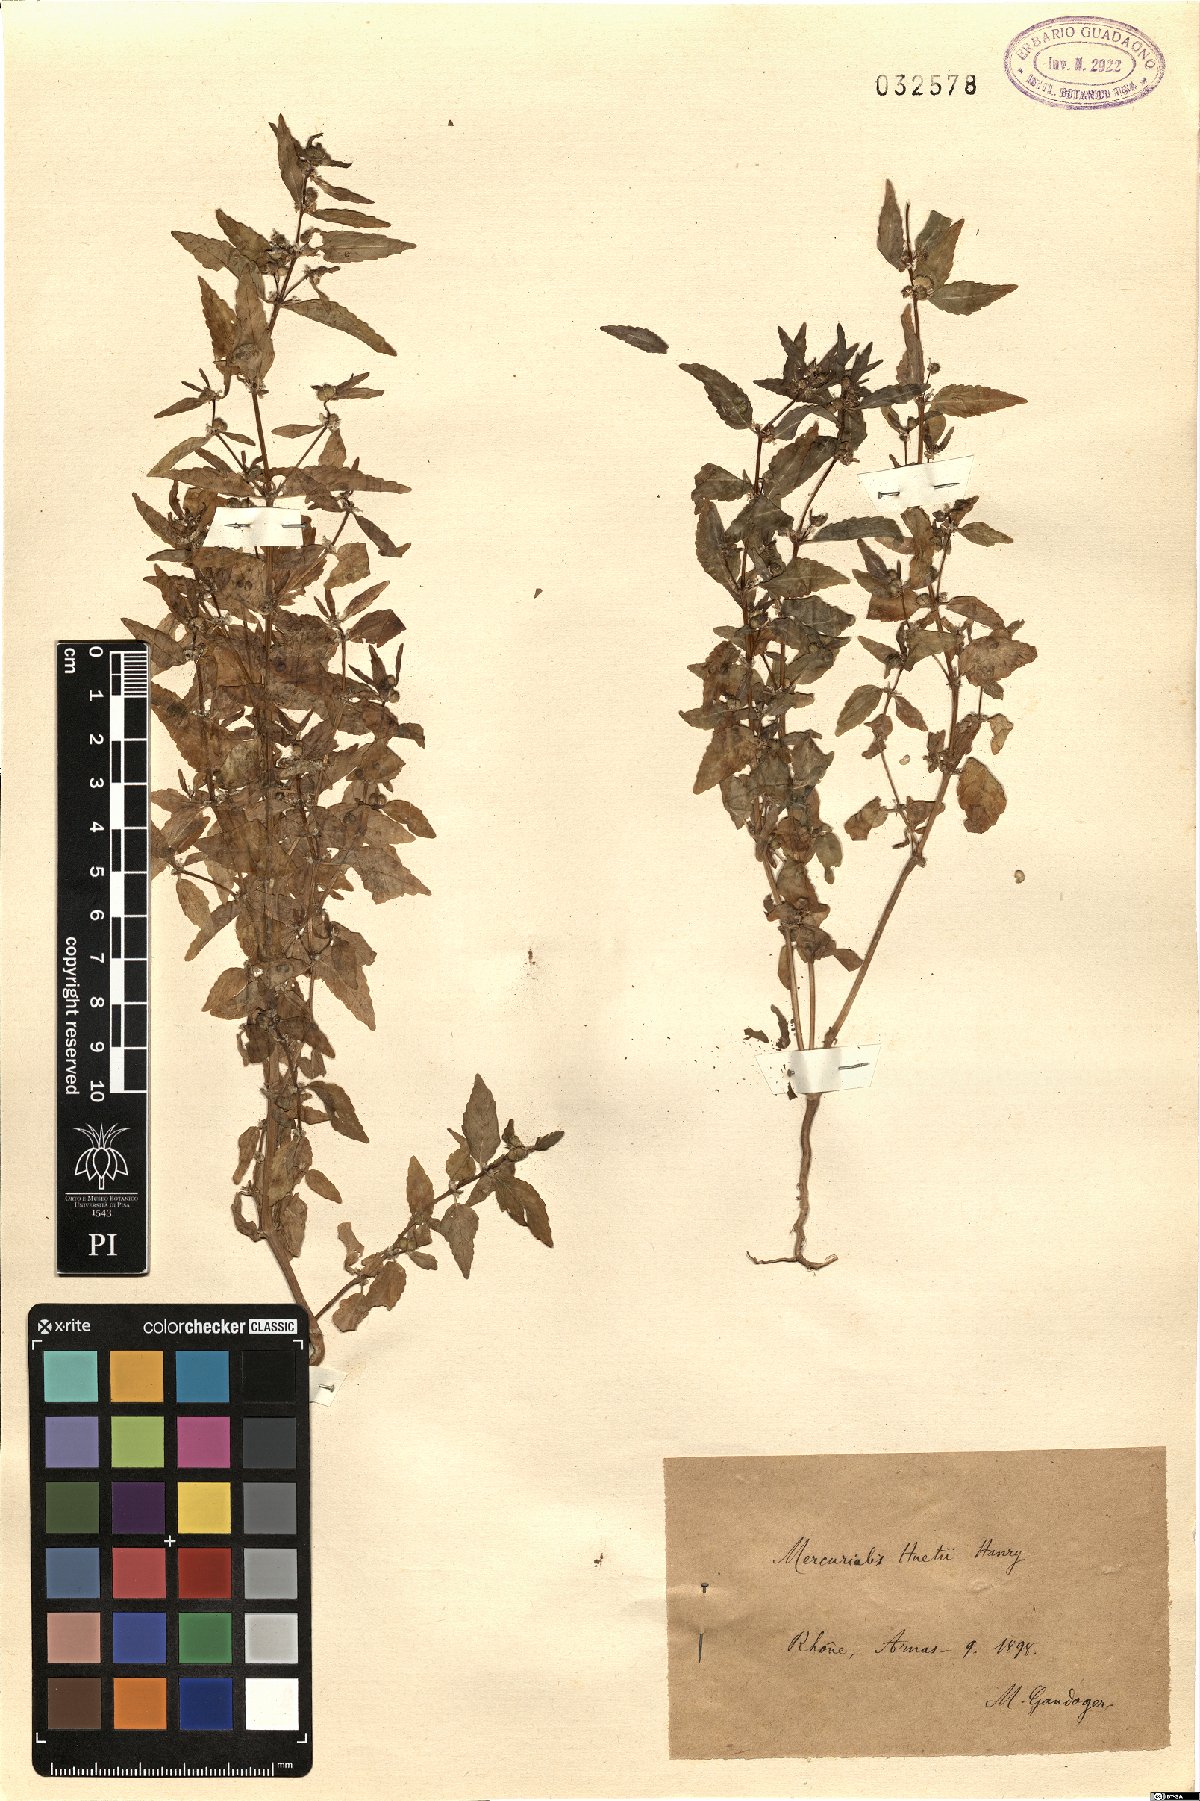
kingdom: Plantae
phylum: Tracheophyta
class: Magnoliopsida
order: Malpighiales
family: Euphorbiaceae
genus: Mercurialis
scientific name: Mercurialis huetii
